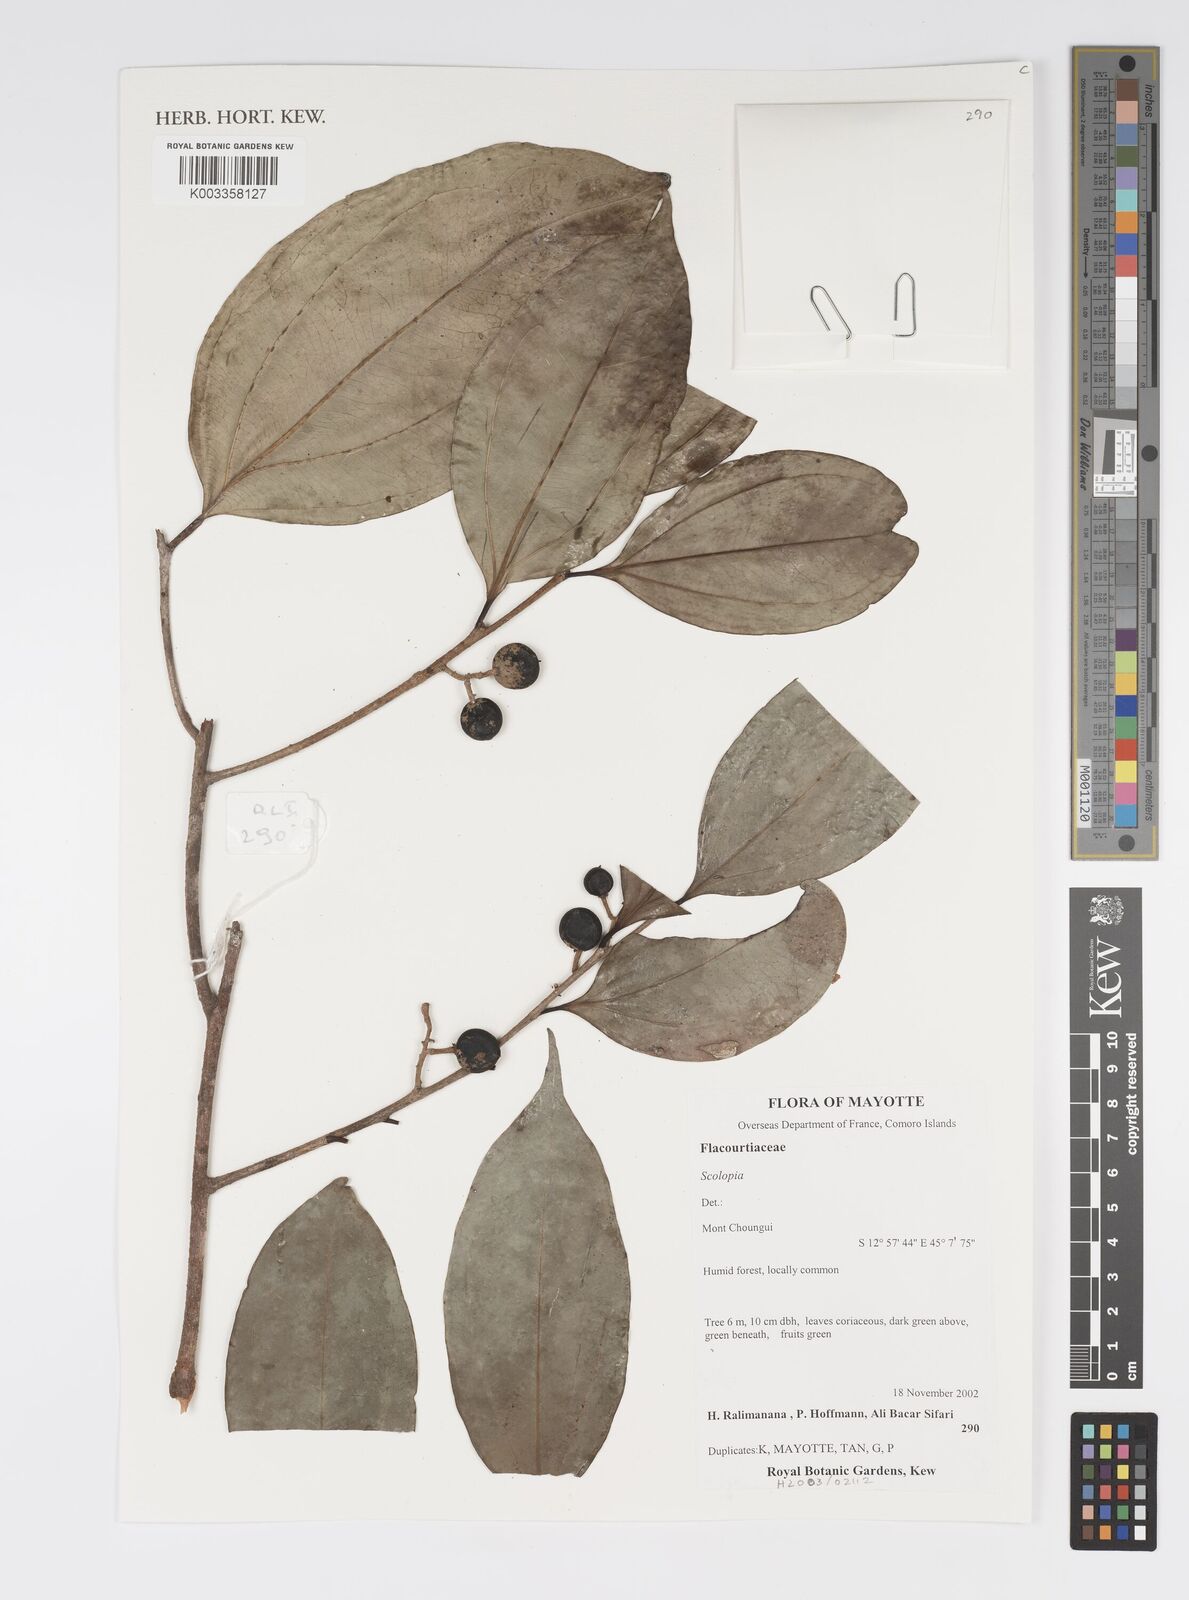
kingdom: Plantae
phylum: Tracheophyta
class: Magnoliopsida
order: Malpighiales
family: Salicaceae
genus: Scolopia
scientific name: Scolopia
